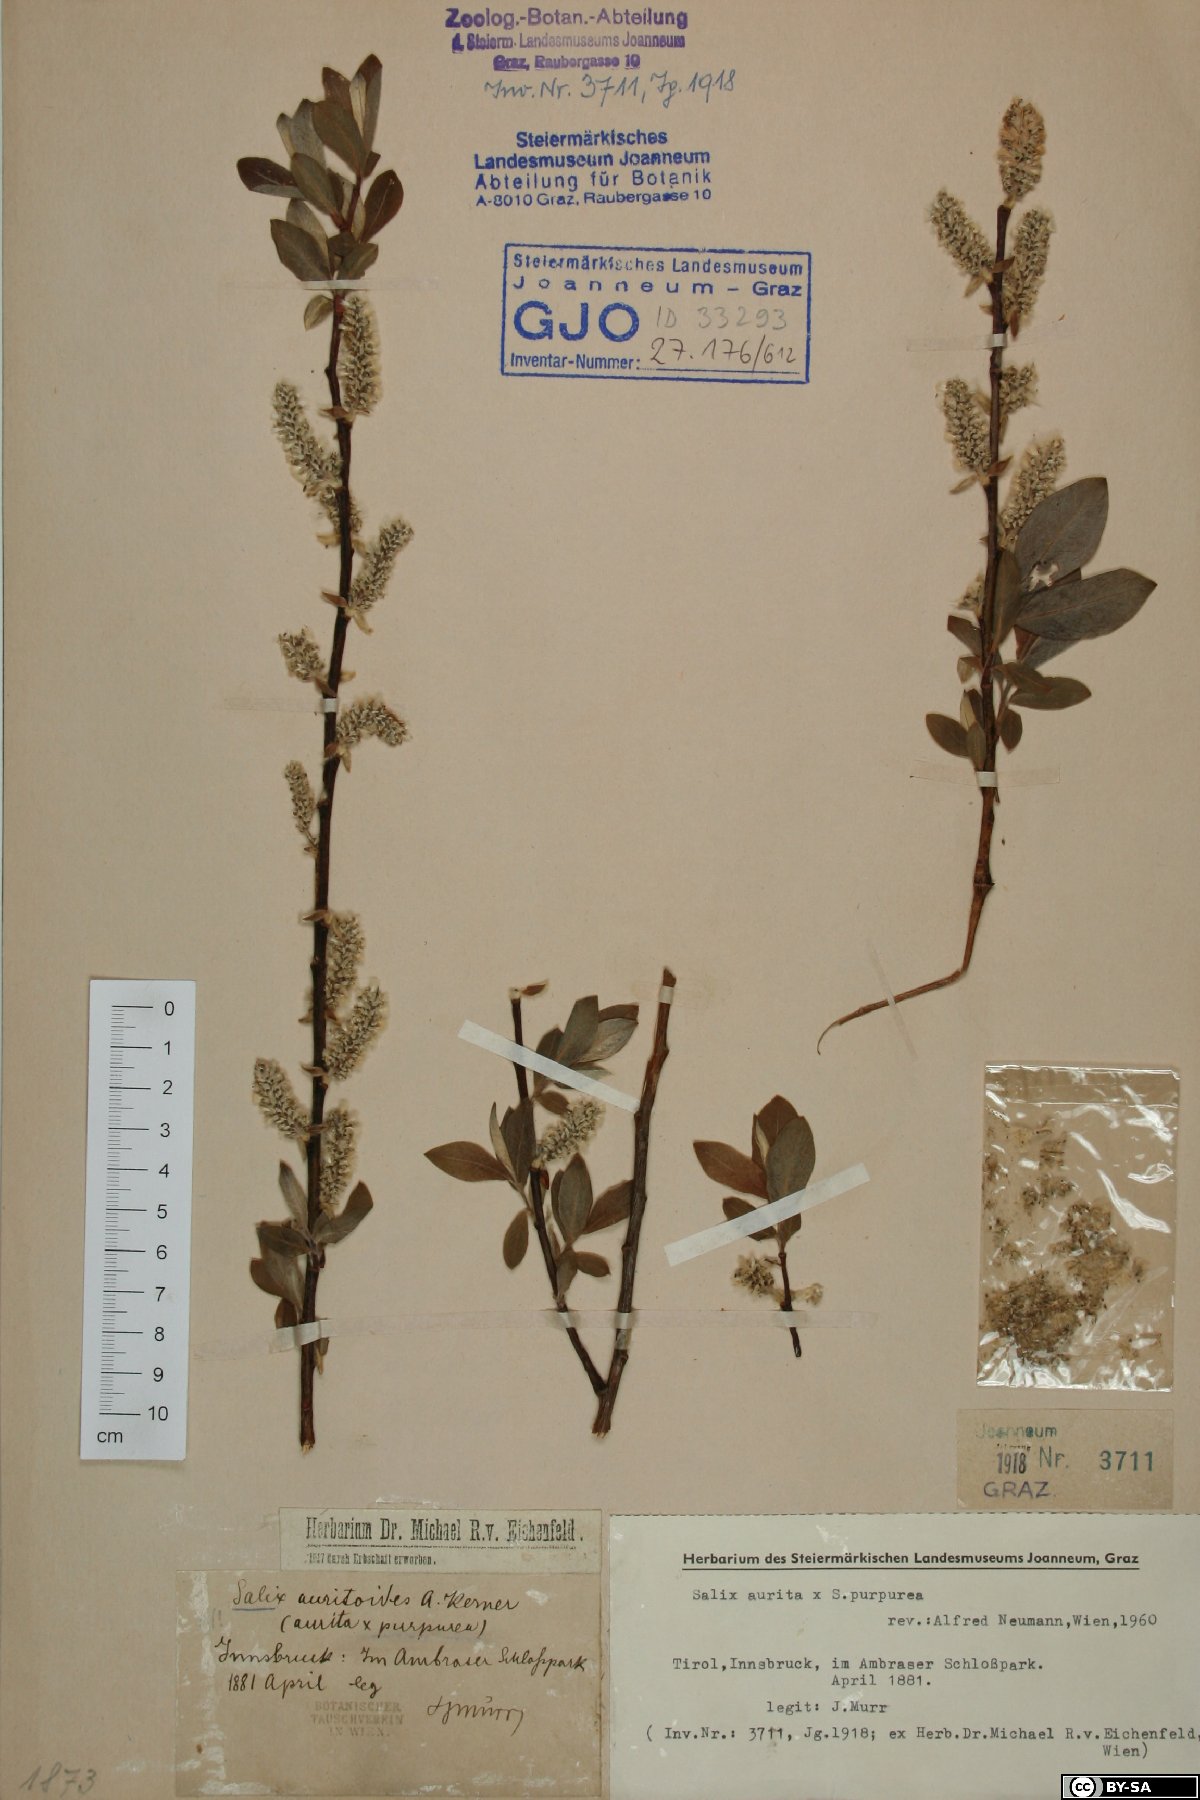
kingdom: Plantae
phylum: Tracheophyta
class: Magnoliopsida
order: Malpighiales
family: Salicaceae
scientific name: Salicaceae
